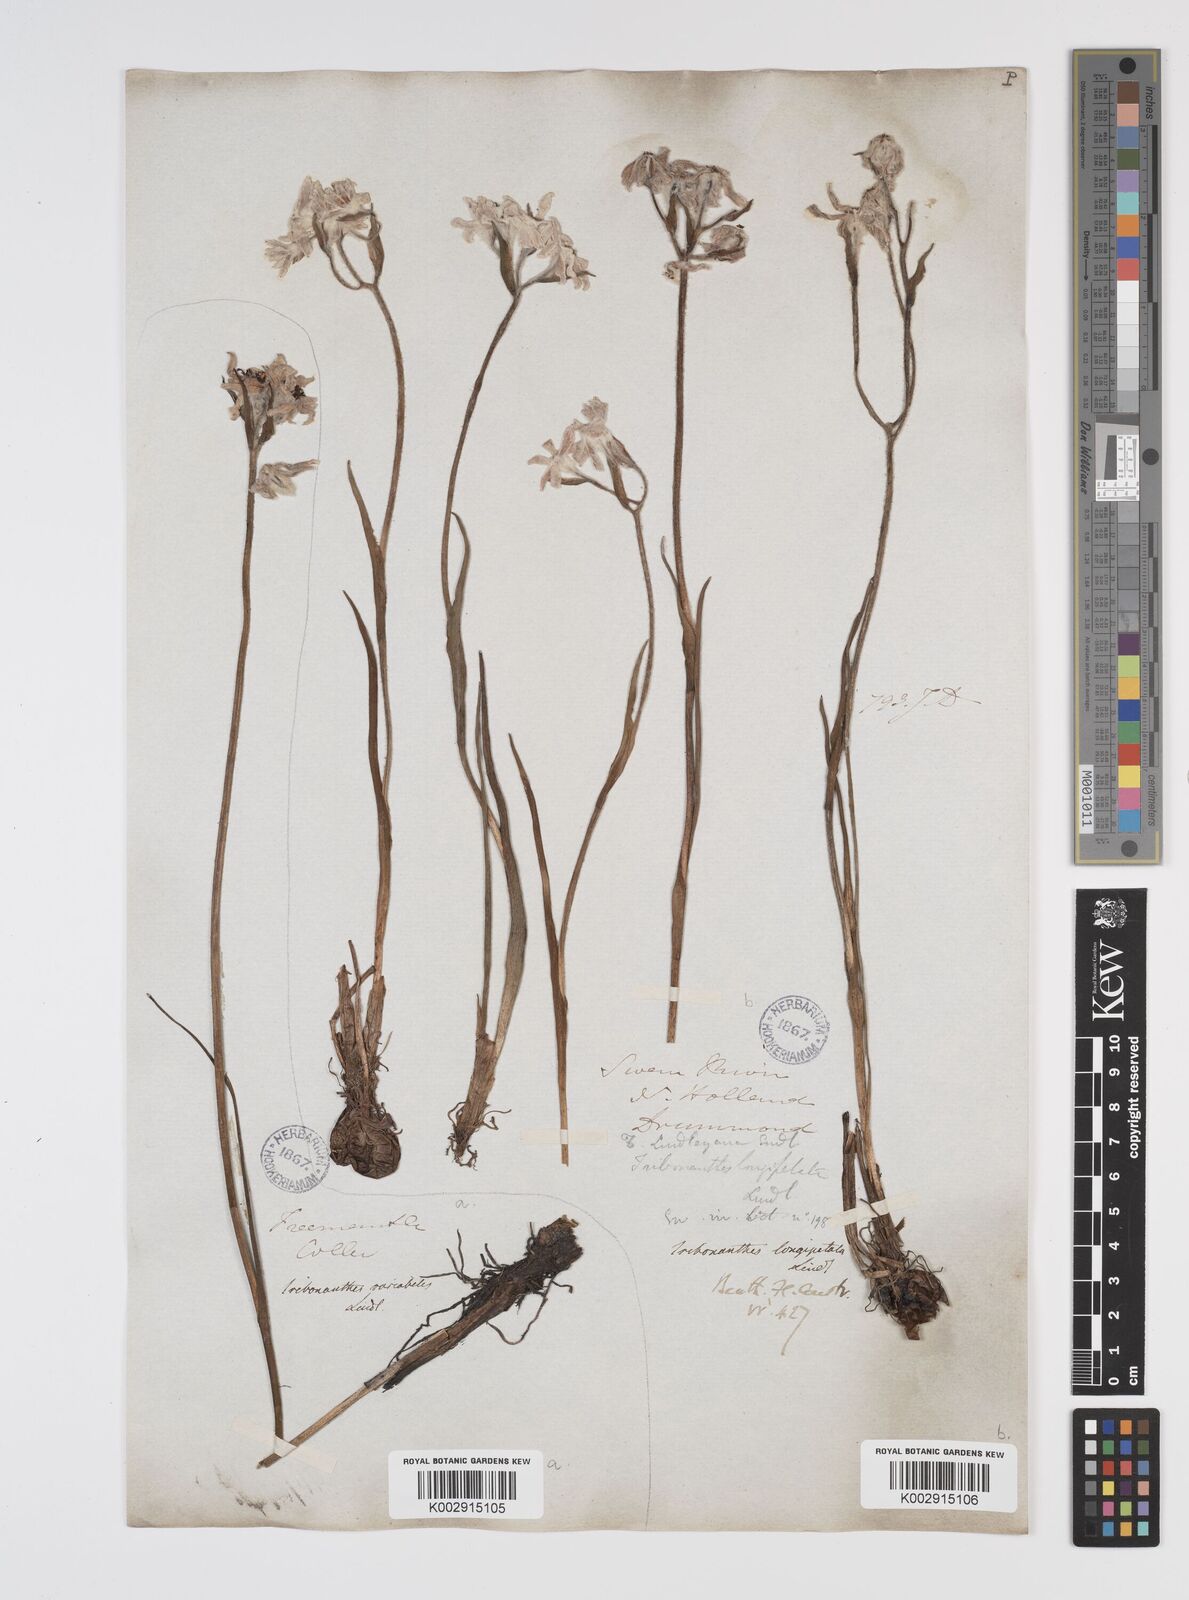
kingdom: Plantae
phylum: Tracheophyta
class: Liliopsida
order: Commelinales
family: Haemodoraceae
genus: Tribonanthes
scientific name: Tribonanthes longipetala
